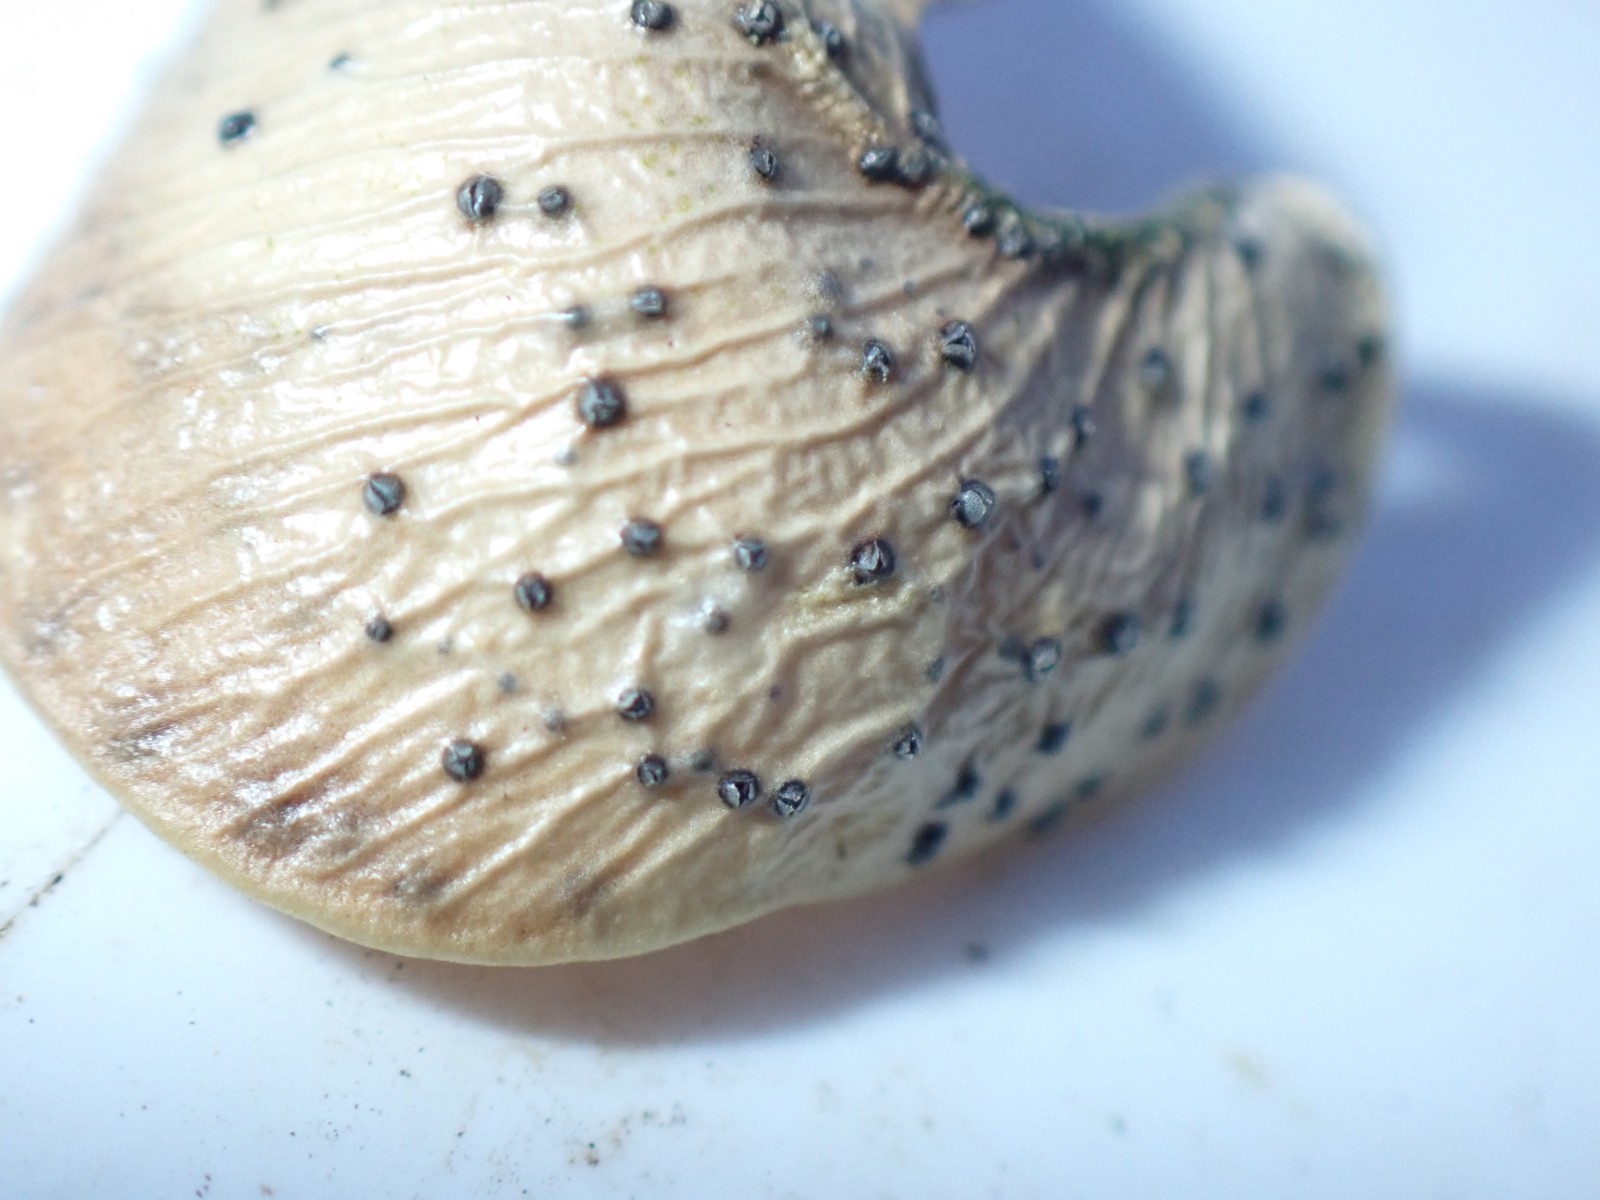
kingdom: Fungi
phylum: Ascomycota
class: Sordariomycetes
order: Diaporthales
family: Diaporthaceae
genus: Diaporthe
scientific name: Diaporthe stictica
